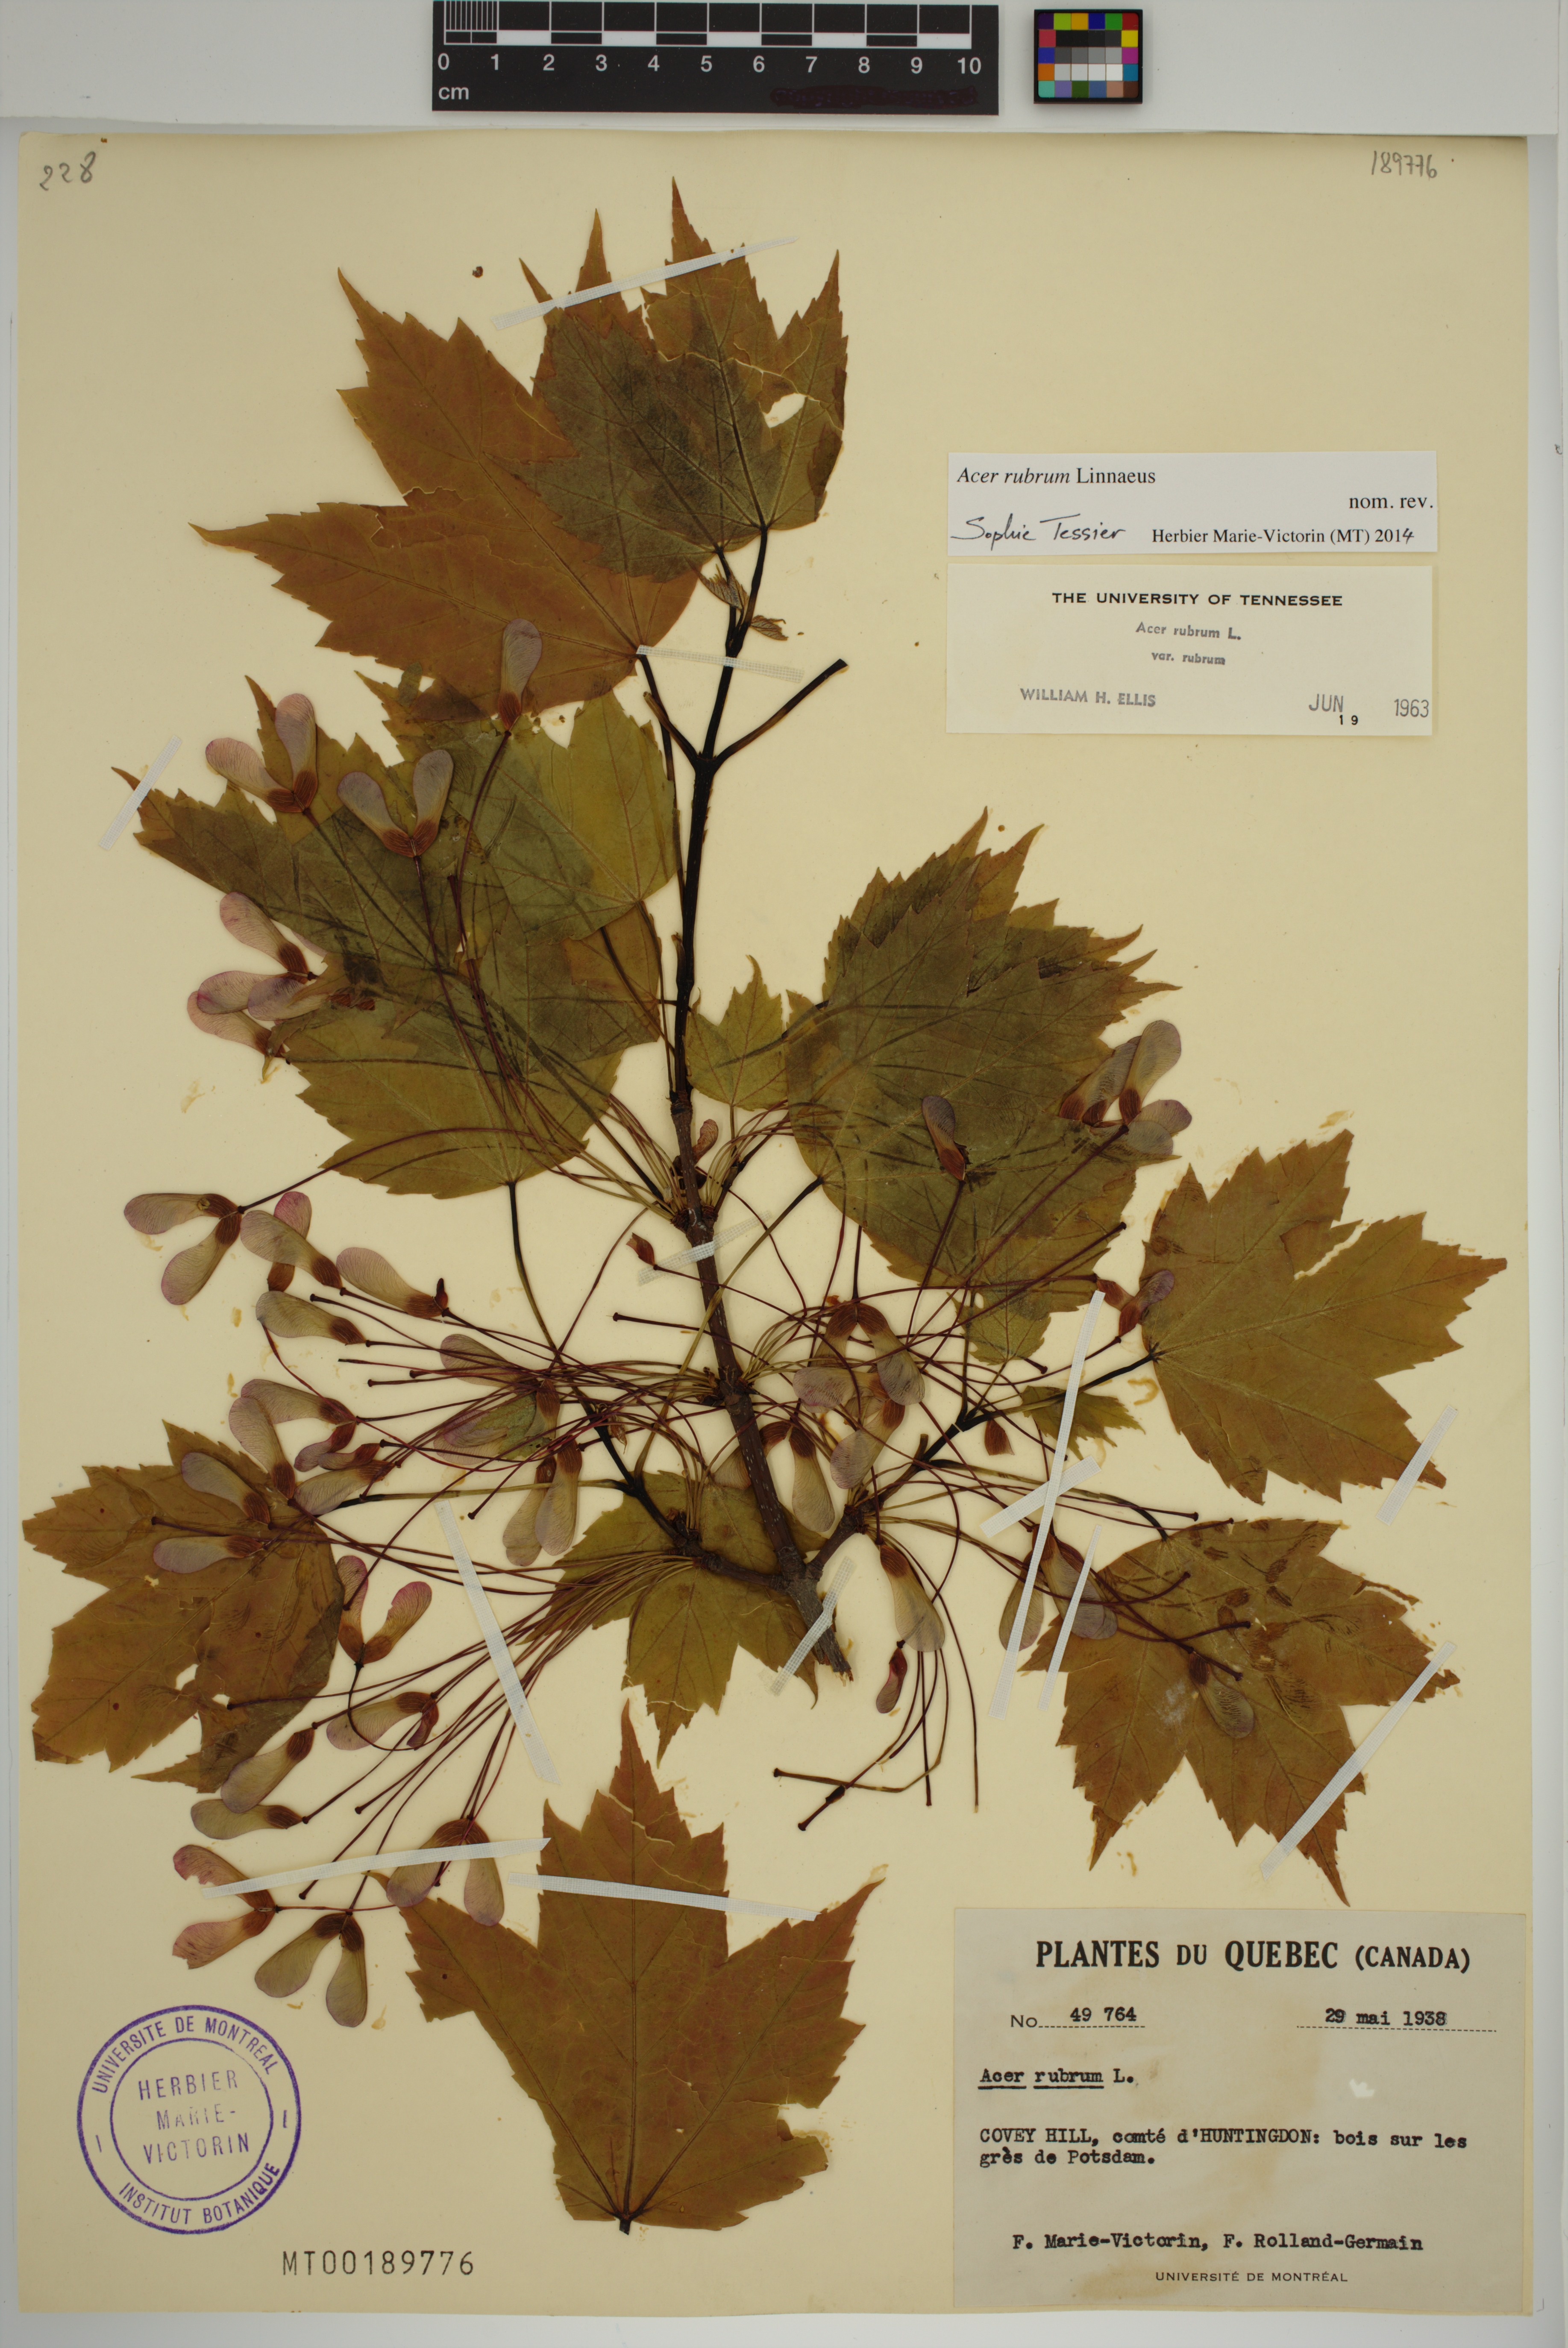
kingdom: Plantae
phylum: Tracheophyta
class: Magnoliopsida
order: Sapindales
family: Sapindaceae
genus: Acer
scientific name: Acer rubrum
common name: Red maple
